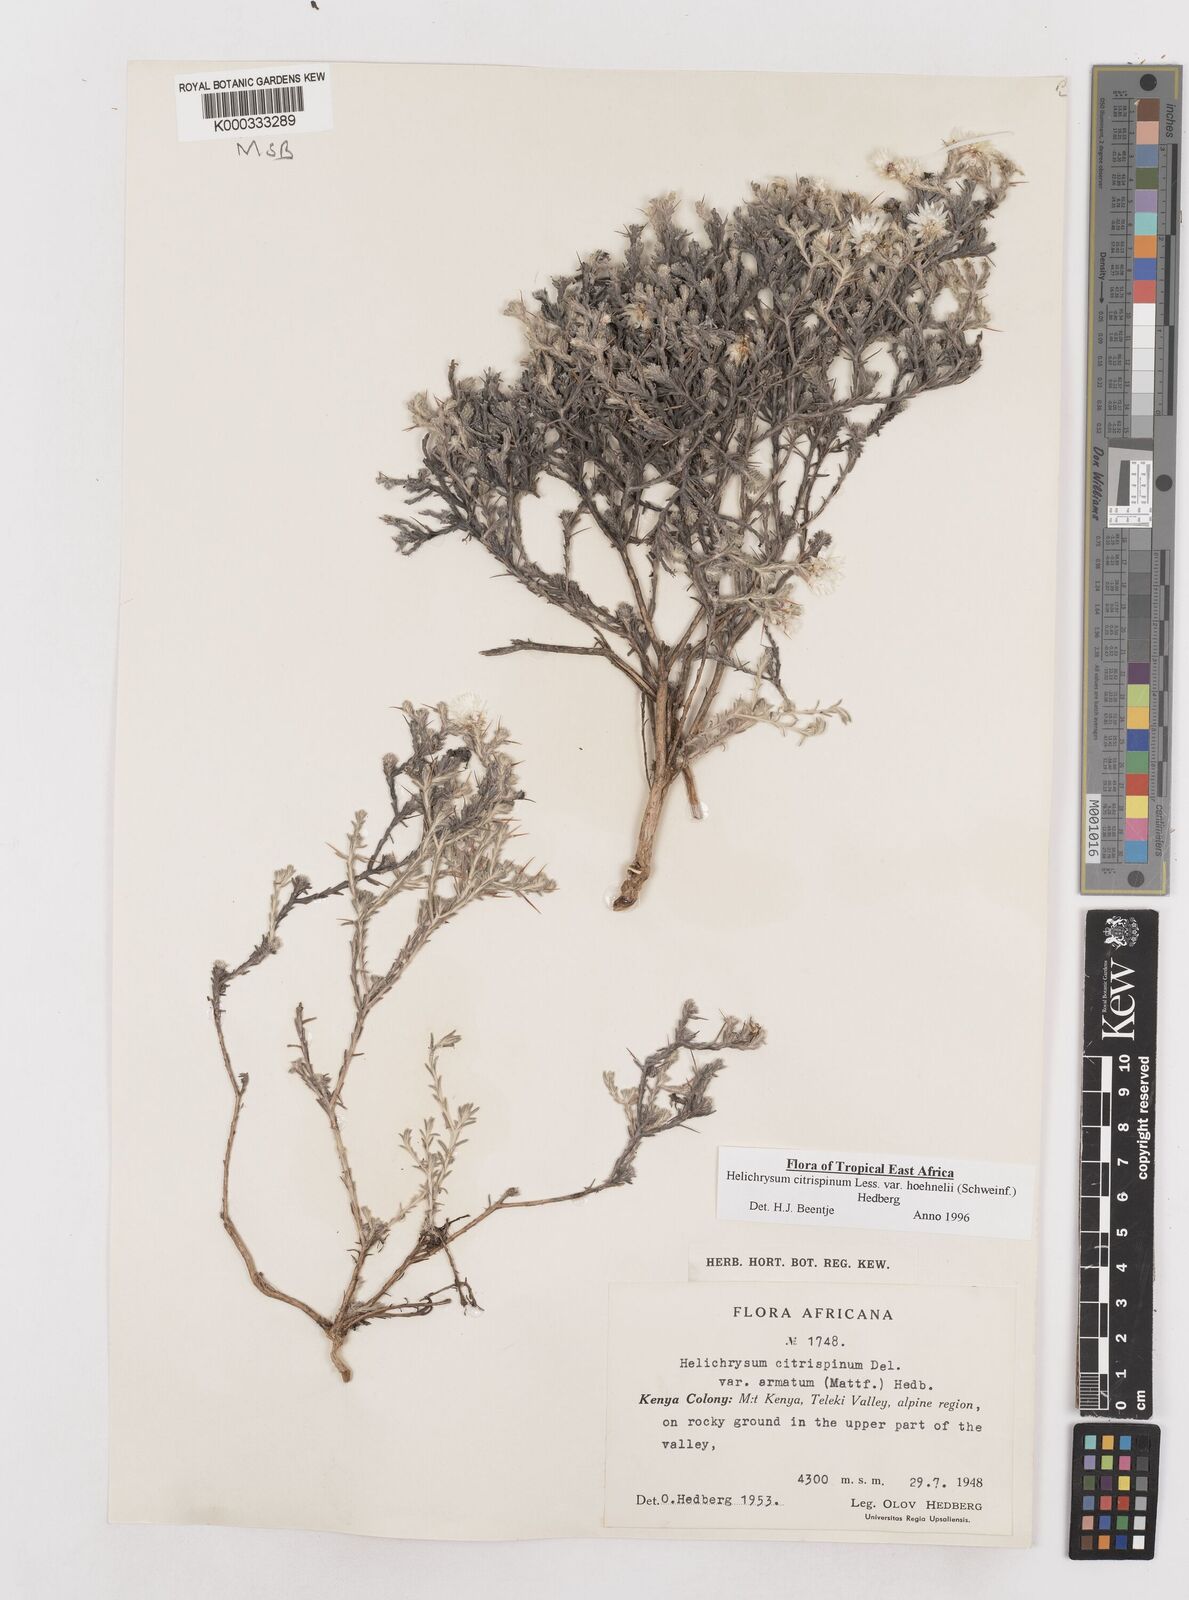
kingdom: Plantae
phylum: Tracheophyta
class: Magnoliopsida
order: Asterales
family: Asteraceae
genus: Helichrysum
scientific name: Helichrysum citrispinum
